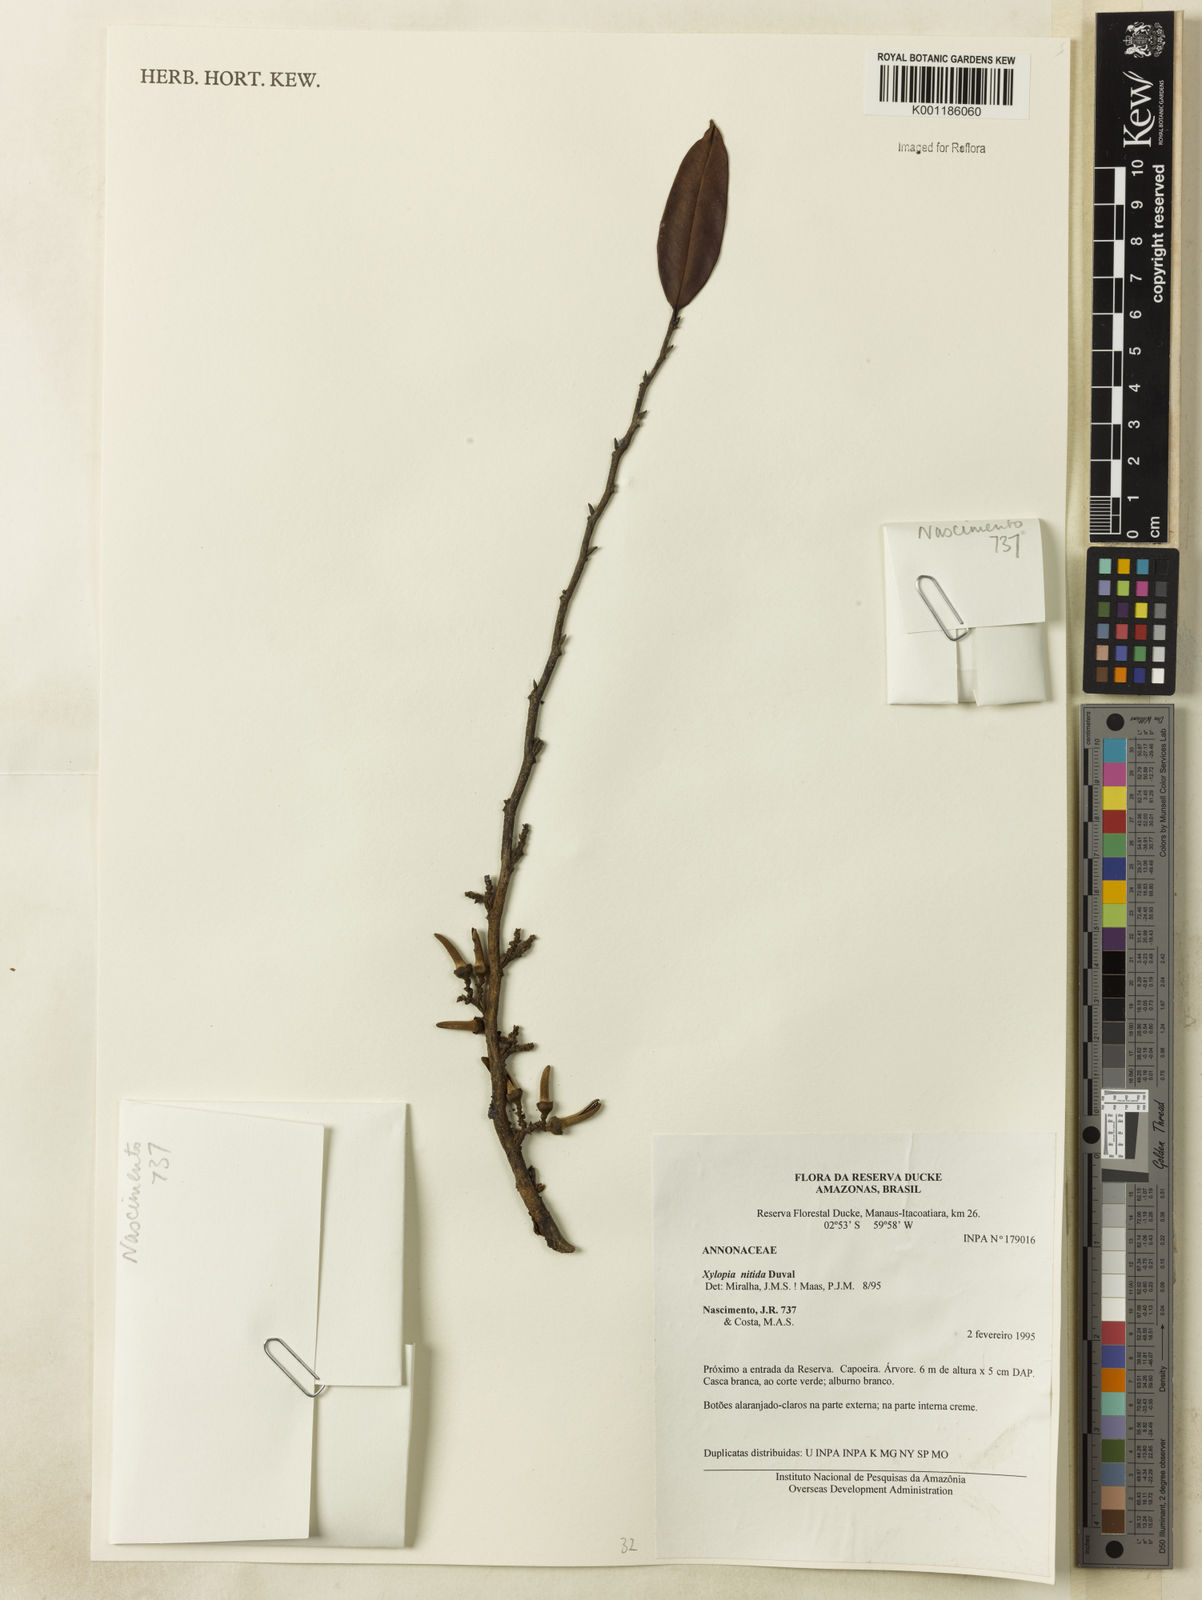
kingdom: Plantae
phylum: Tracheophyta
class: Magnoliopsida
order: Magnoliales
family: Annonaceae
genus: Xylopia
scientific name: Xylopia nitida
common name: White kuyama
